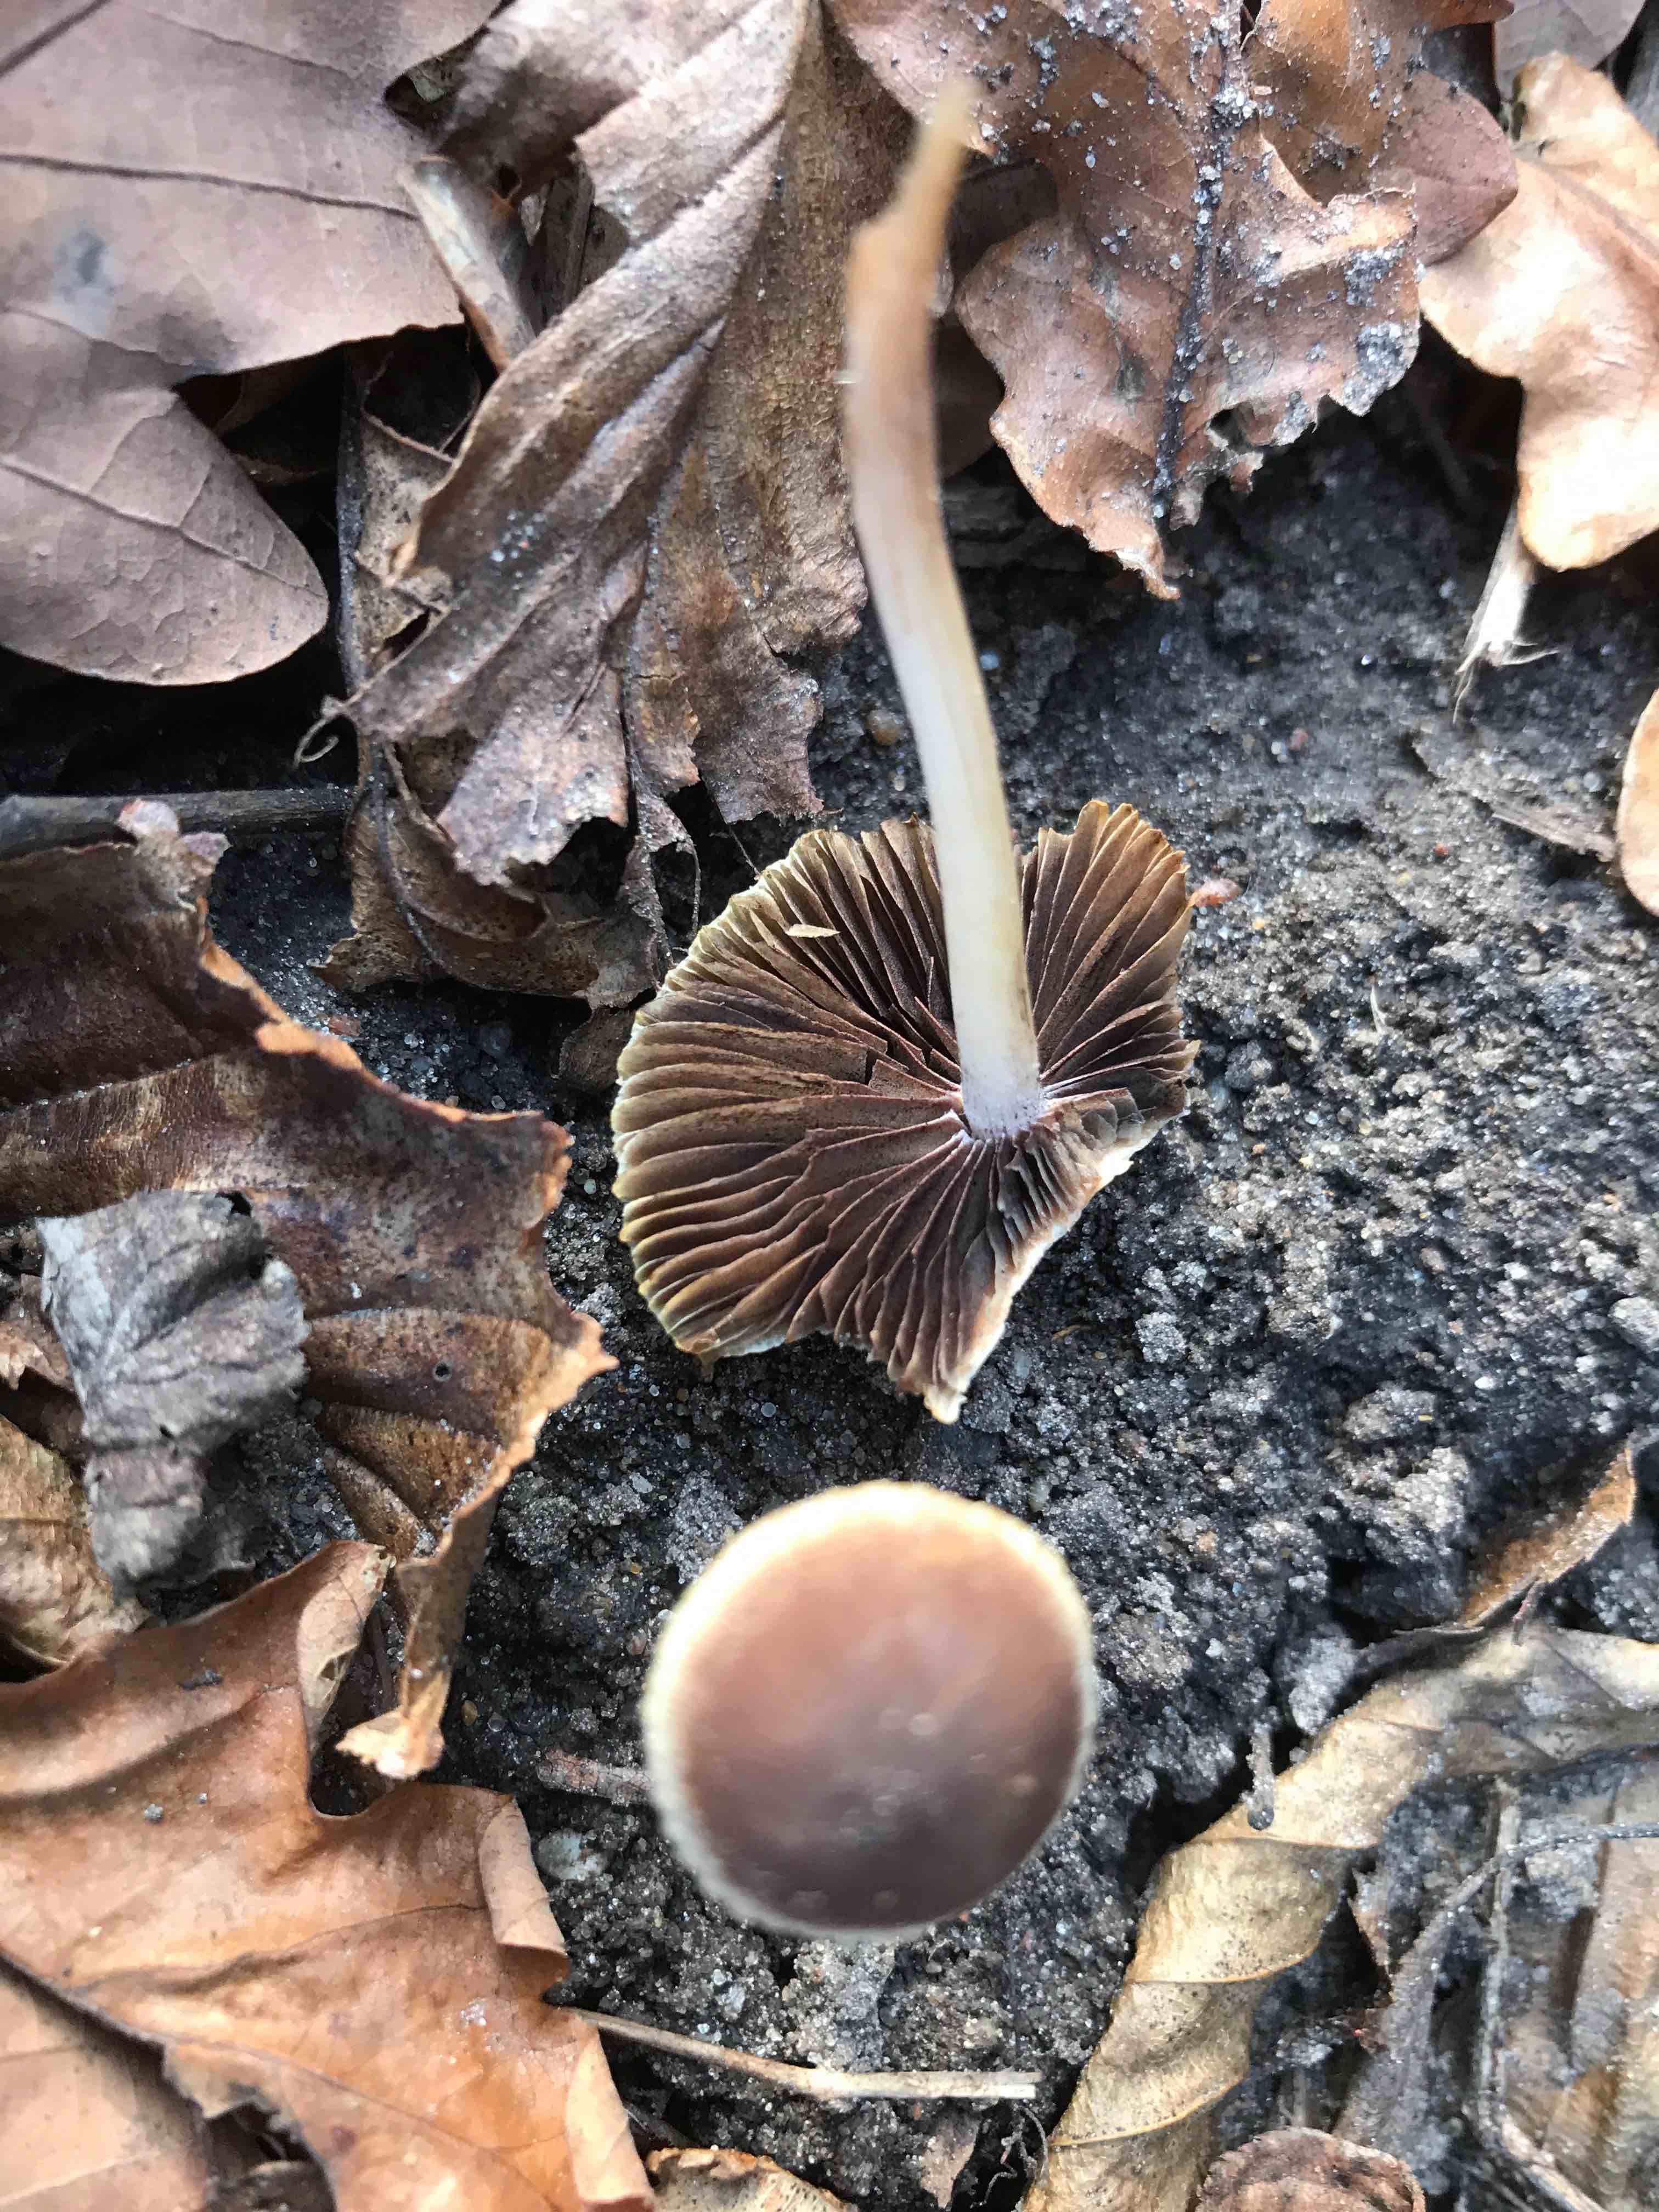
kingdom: Fungi
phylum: Basidiomycota
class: Agaricomycetes
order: Agaricales
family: Psathyrellaceae
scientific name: Psathyrellaceae
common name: mørkhatfamilien
